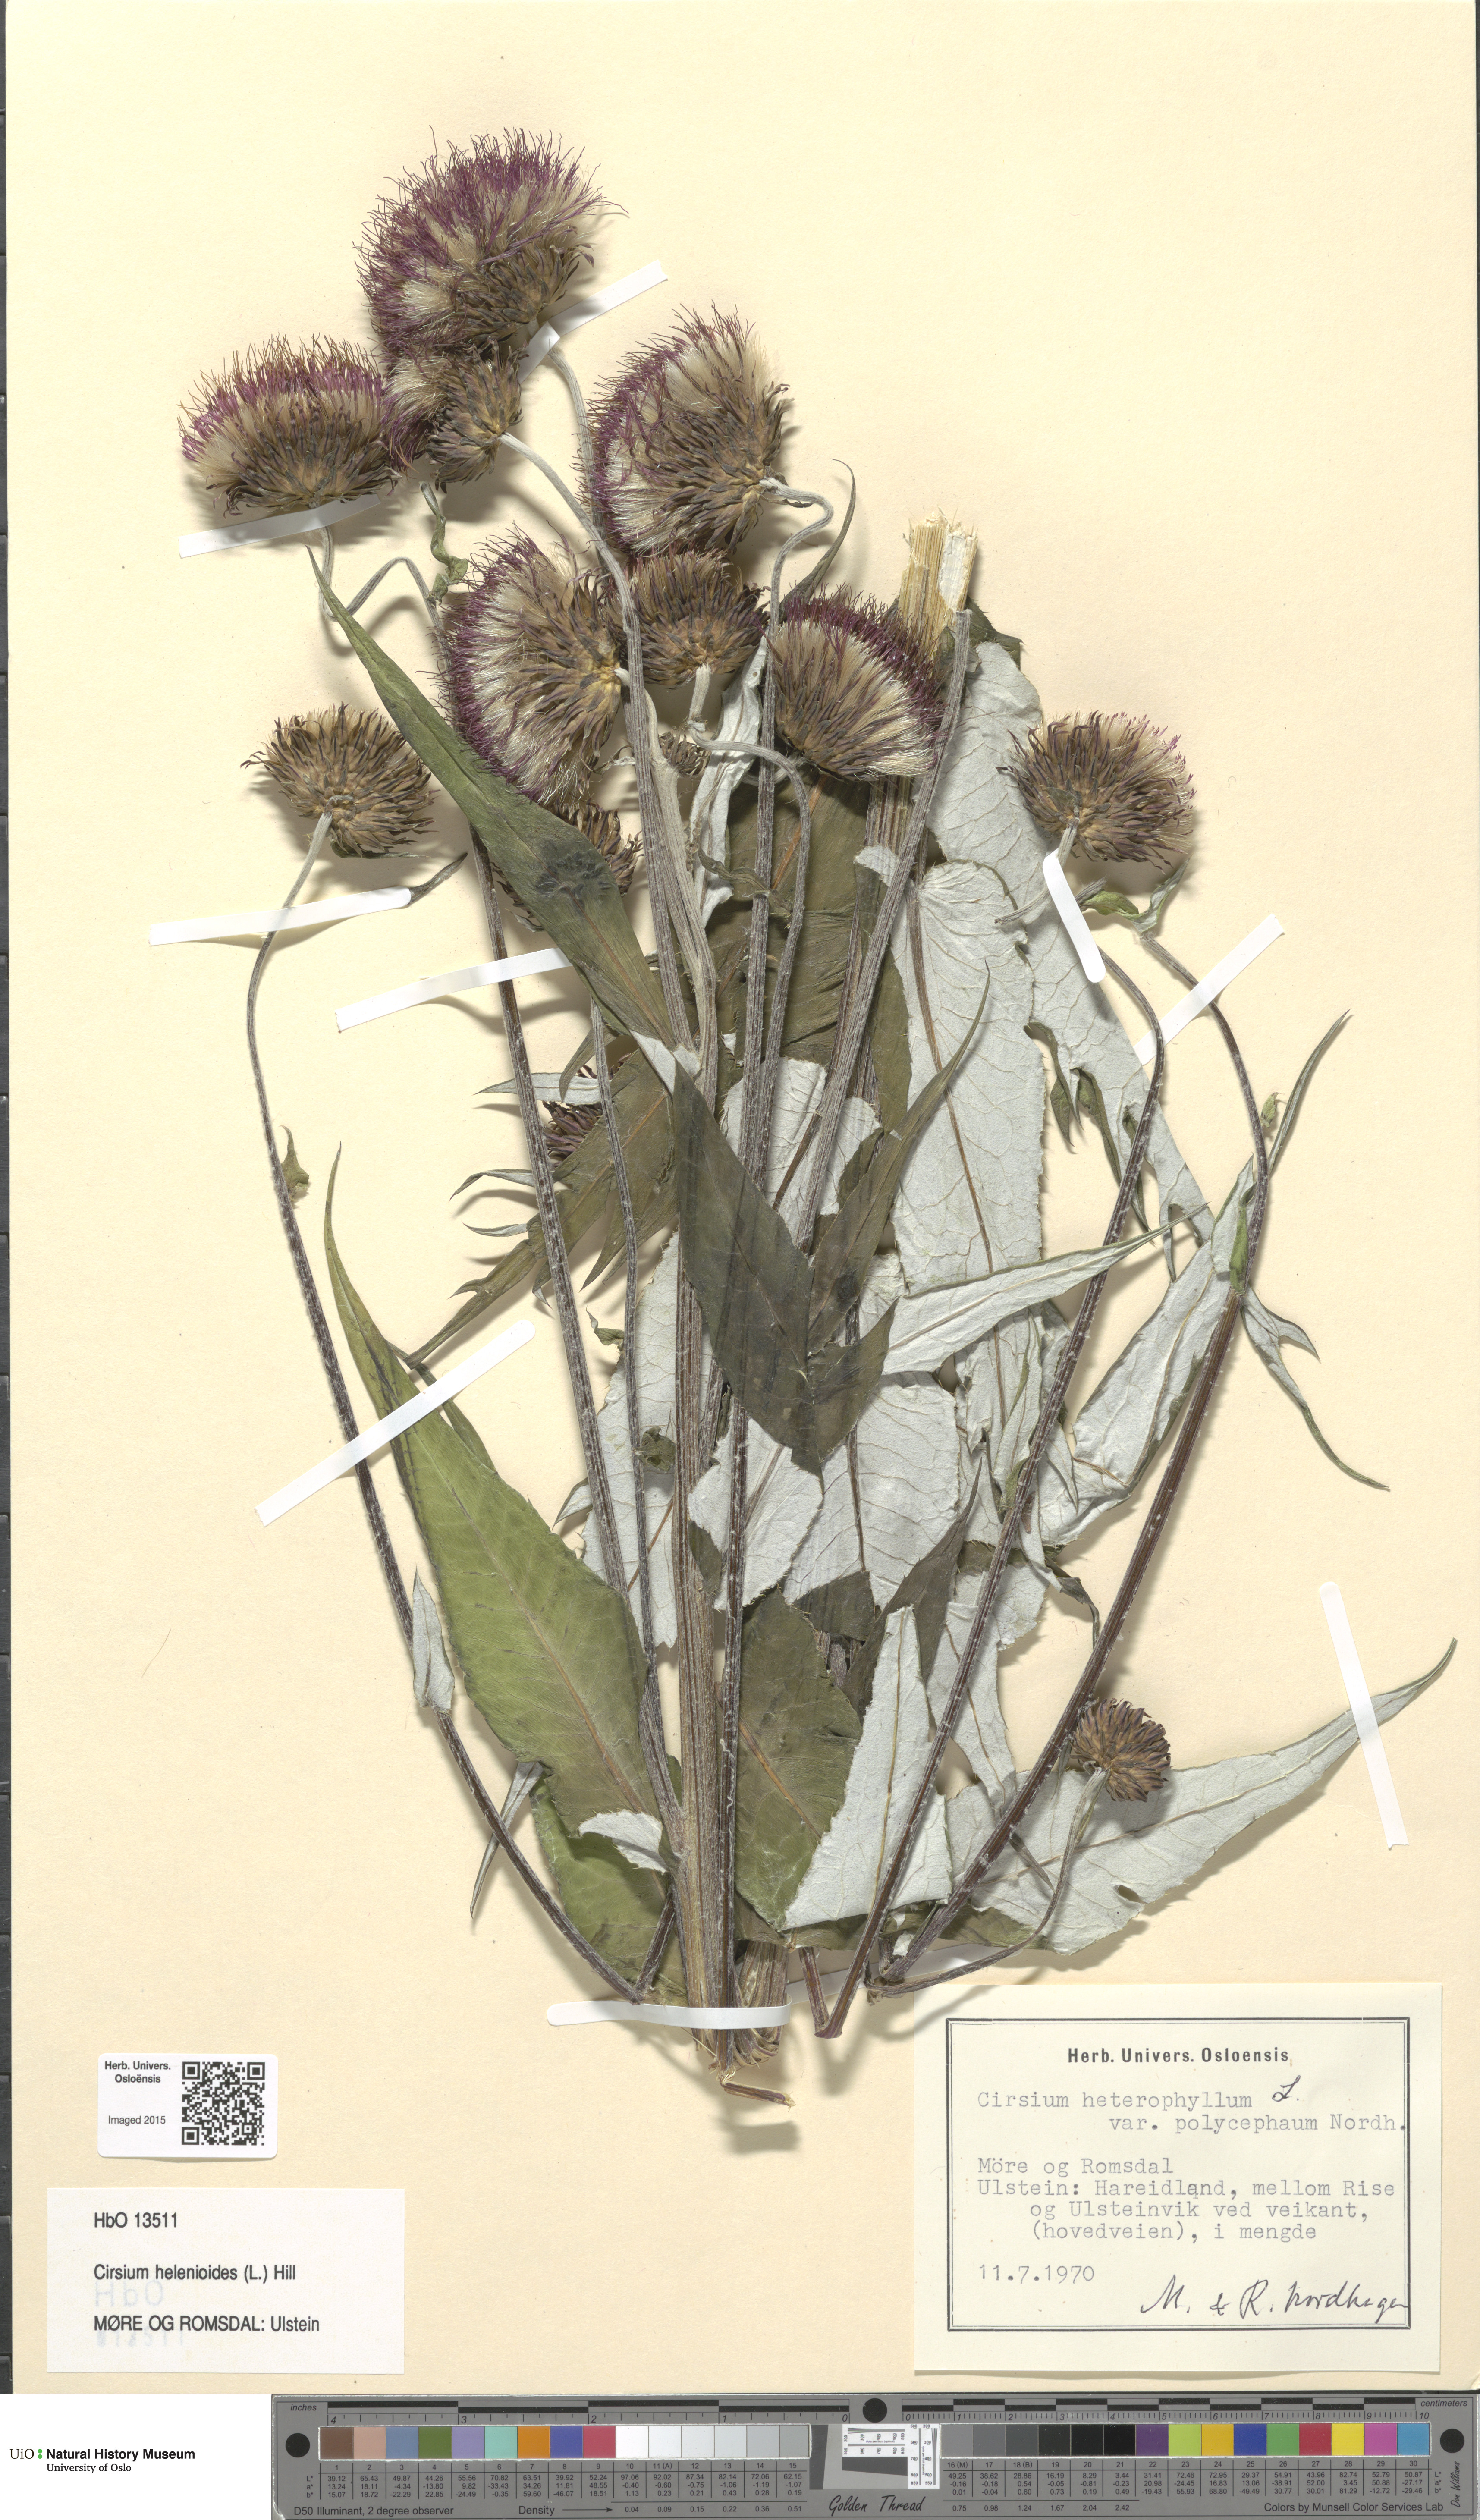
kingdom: Plantae
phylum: Tracheophyta
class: Magnoliopsida
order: Asterales
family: Asteraceae
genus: Cirsium
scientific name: Cirsium heterophyllum
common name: Melancholy thistle
